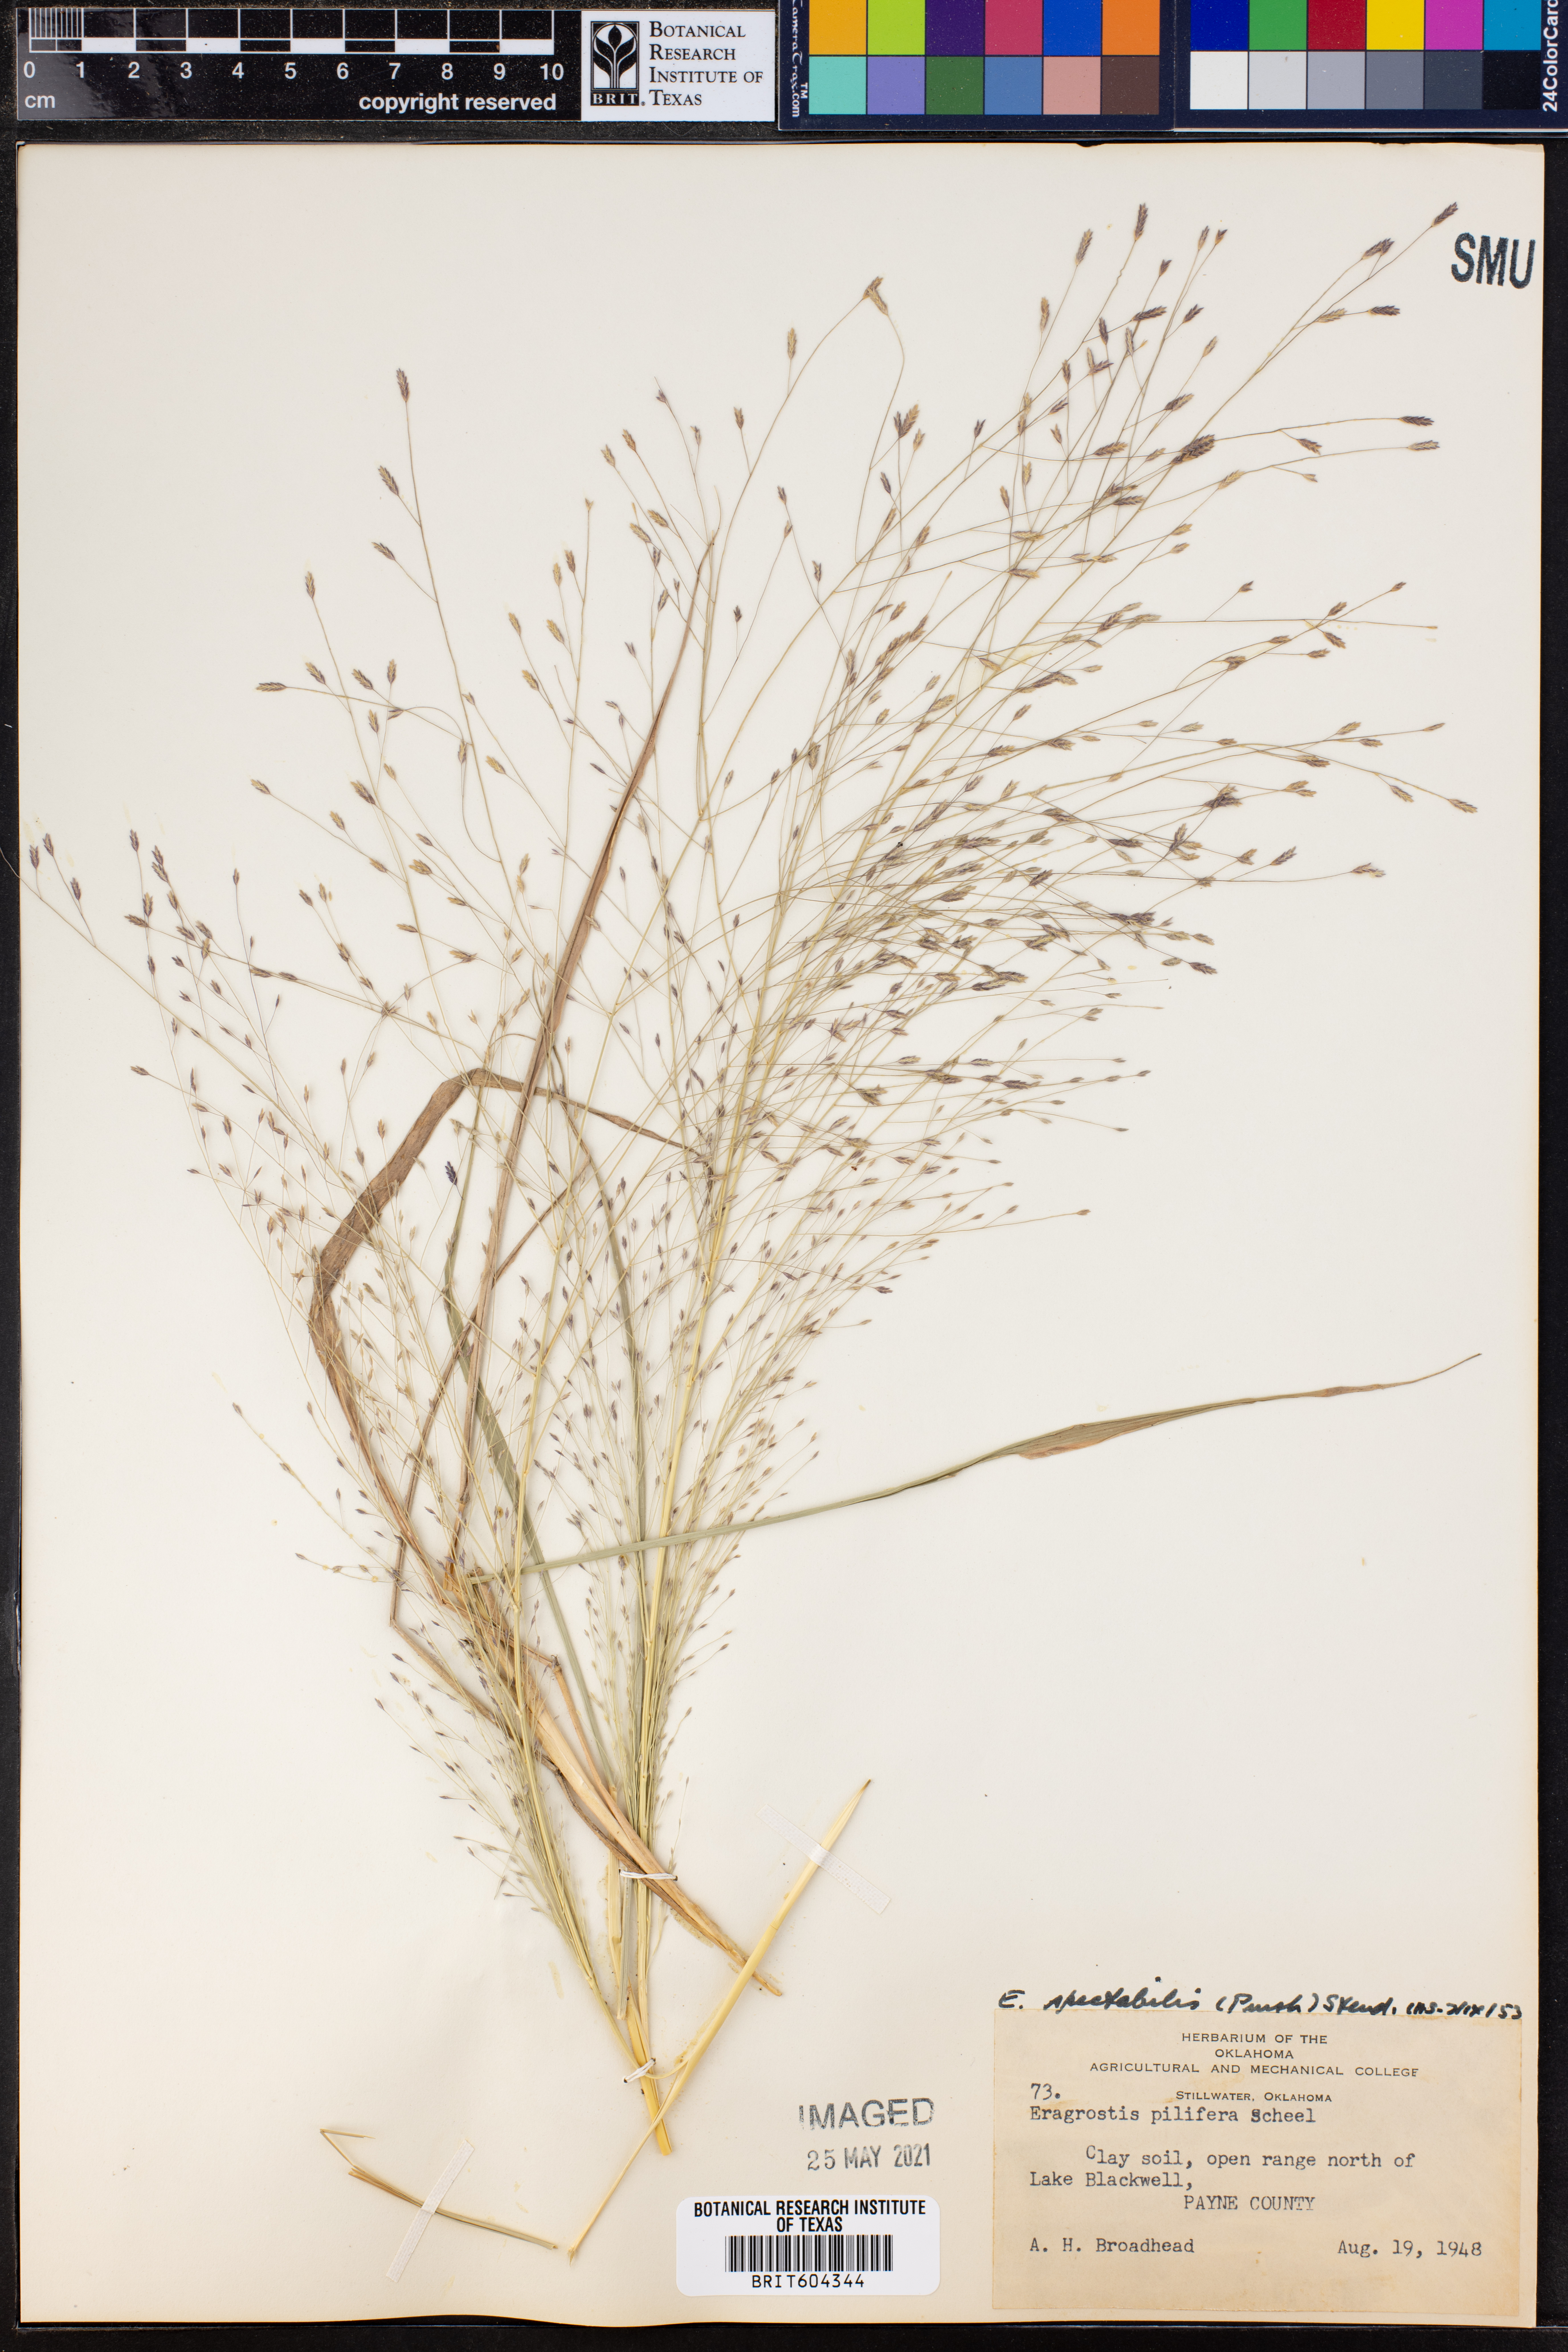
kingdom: Plantae
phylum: Tracheophyta
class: Liliopsida
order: Poales
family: Poaceae
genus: Eragrostis
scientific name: Eragrostis spectabilis
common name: Petticoat-climber
